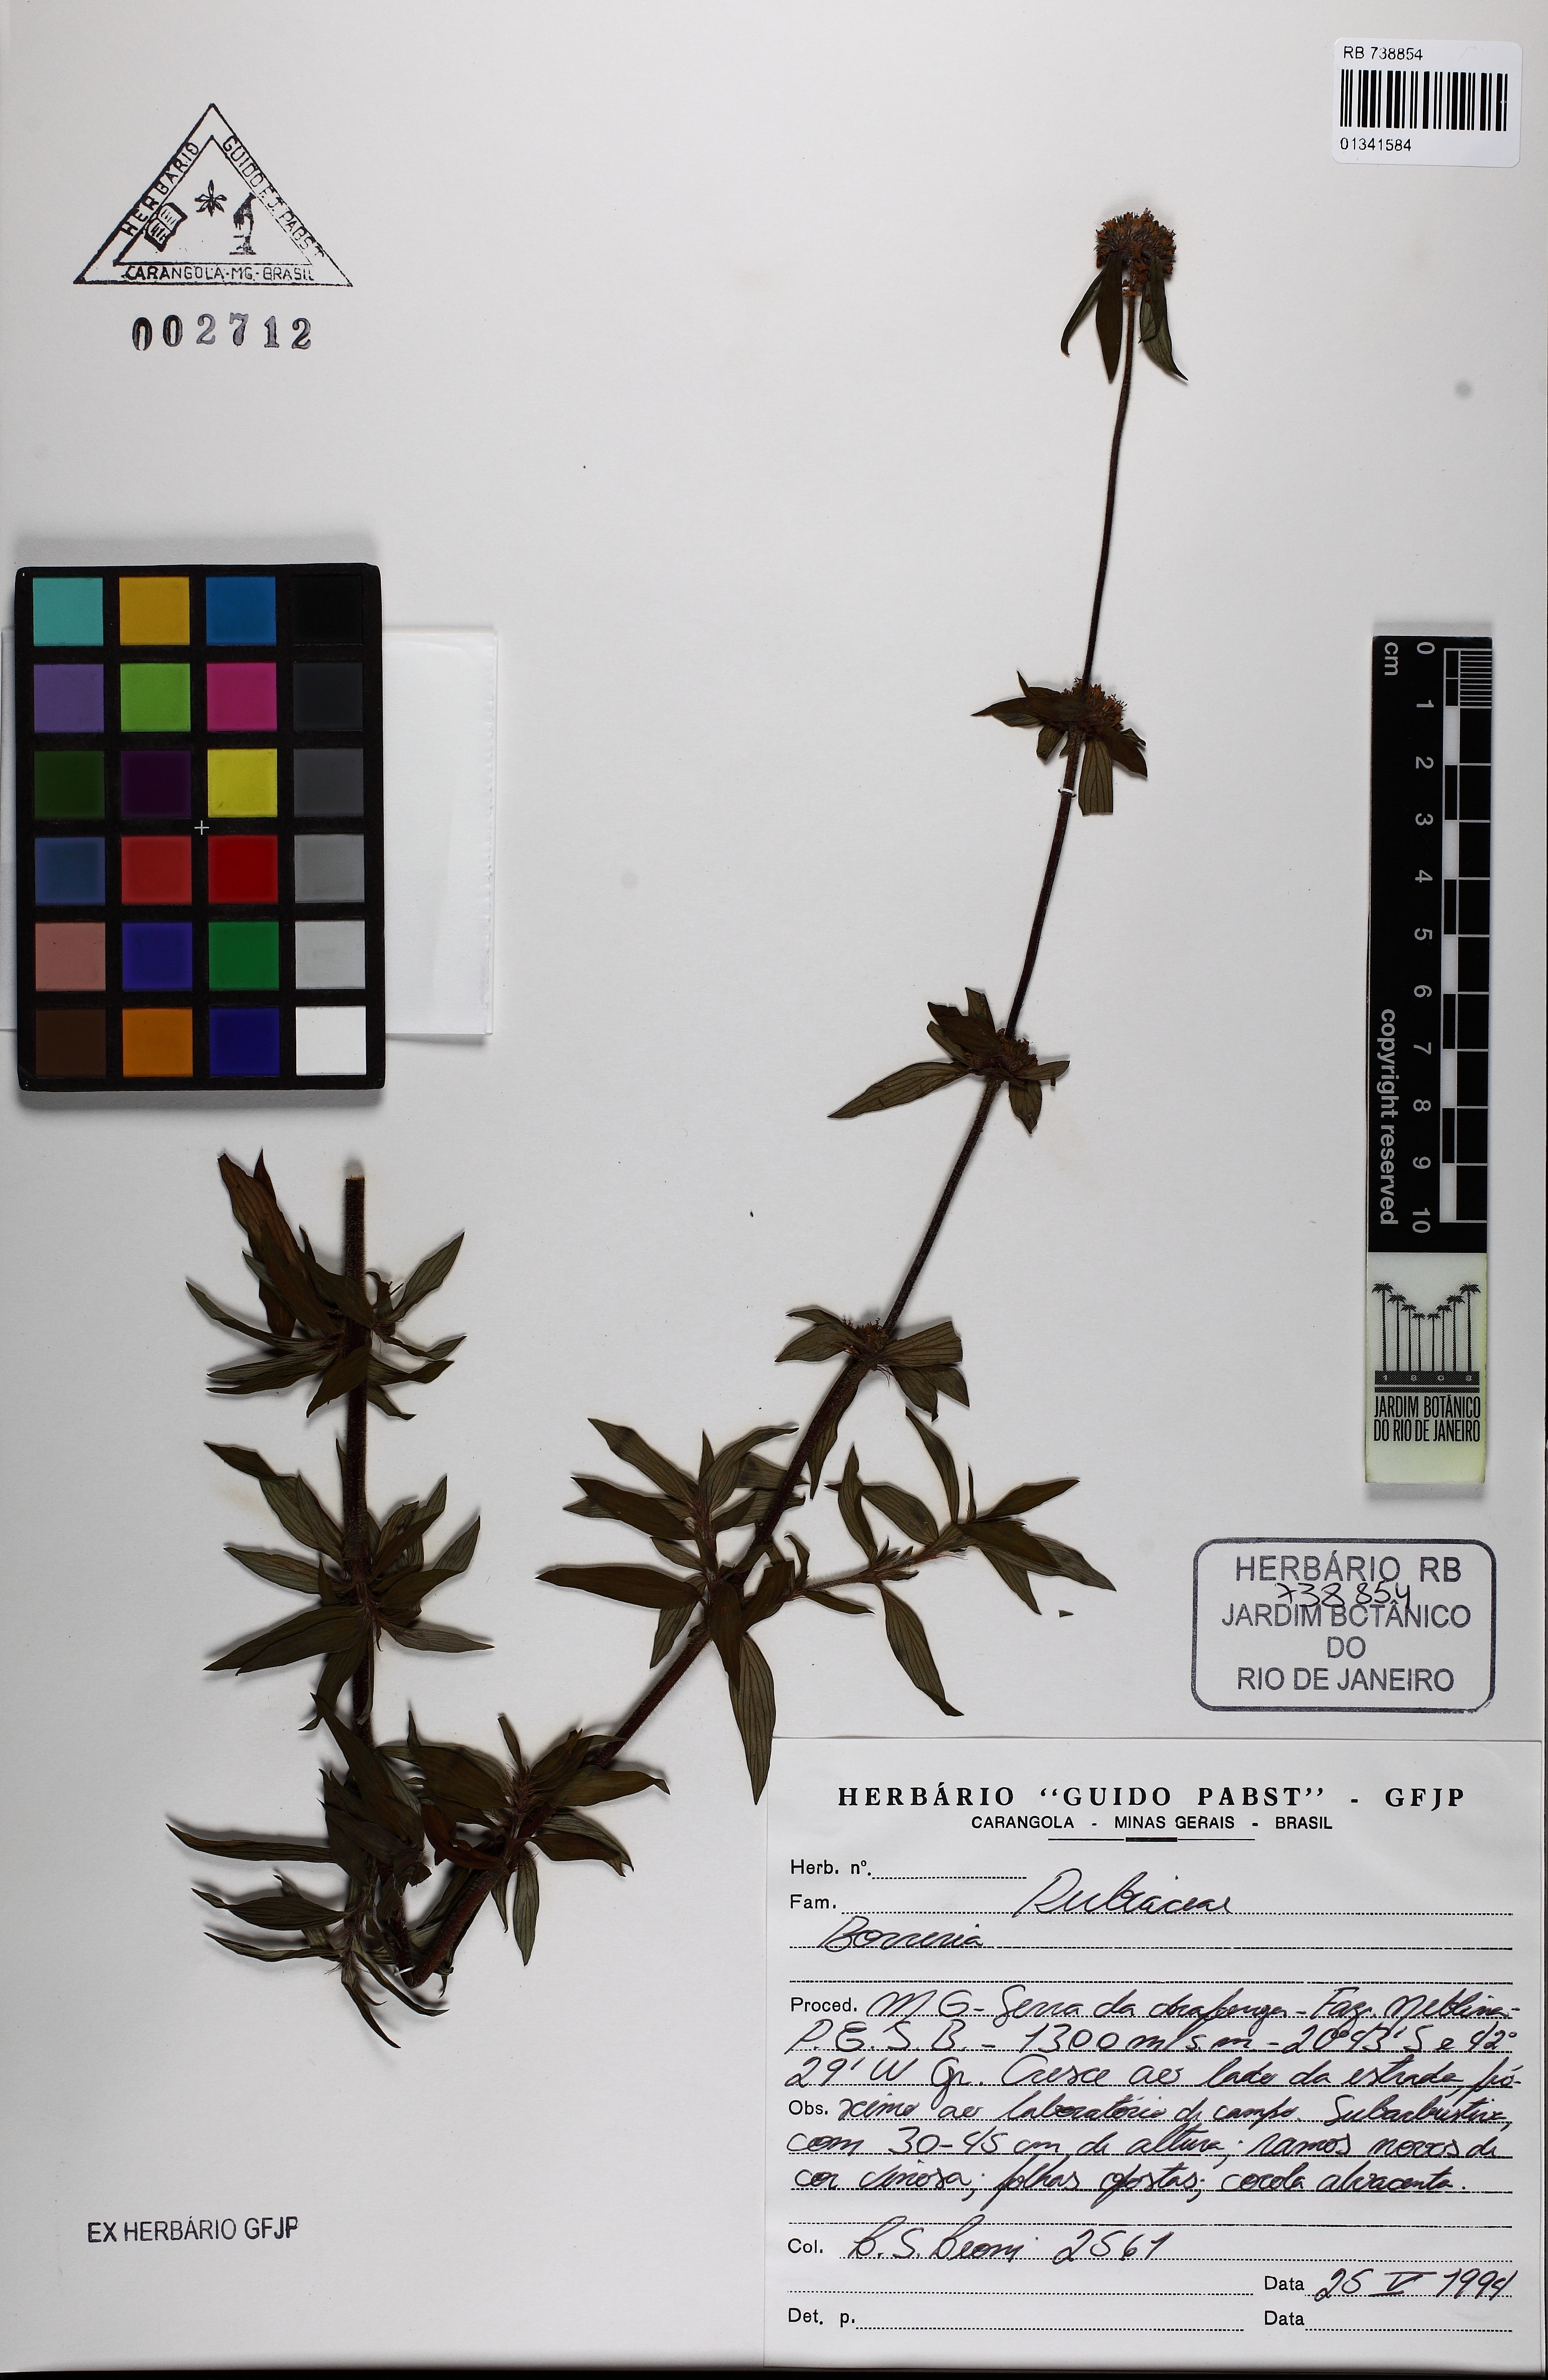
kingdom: Plantae
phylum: Tracheophyta
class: Magnoliopsida
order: Gentianales
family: Rubiaceae
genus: Spermacoce
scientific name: Spermacoce
